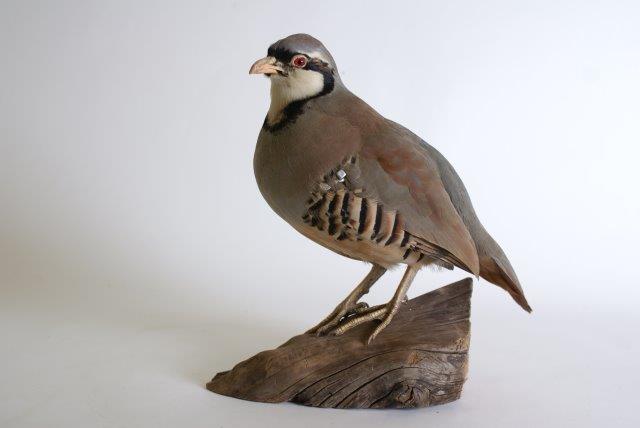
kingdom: Animalia
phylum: Chordata
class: Aves
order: Galliformes
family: Phasianidae
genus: Alectoris
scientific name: Alectoris chukar
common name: Aziatische steenpatrijs
